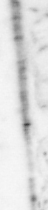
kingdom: Animalia
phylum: Chordata
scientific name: Chordata
